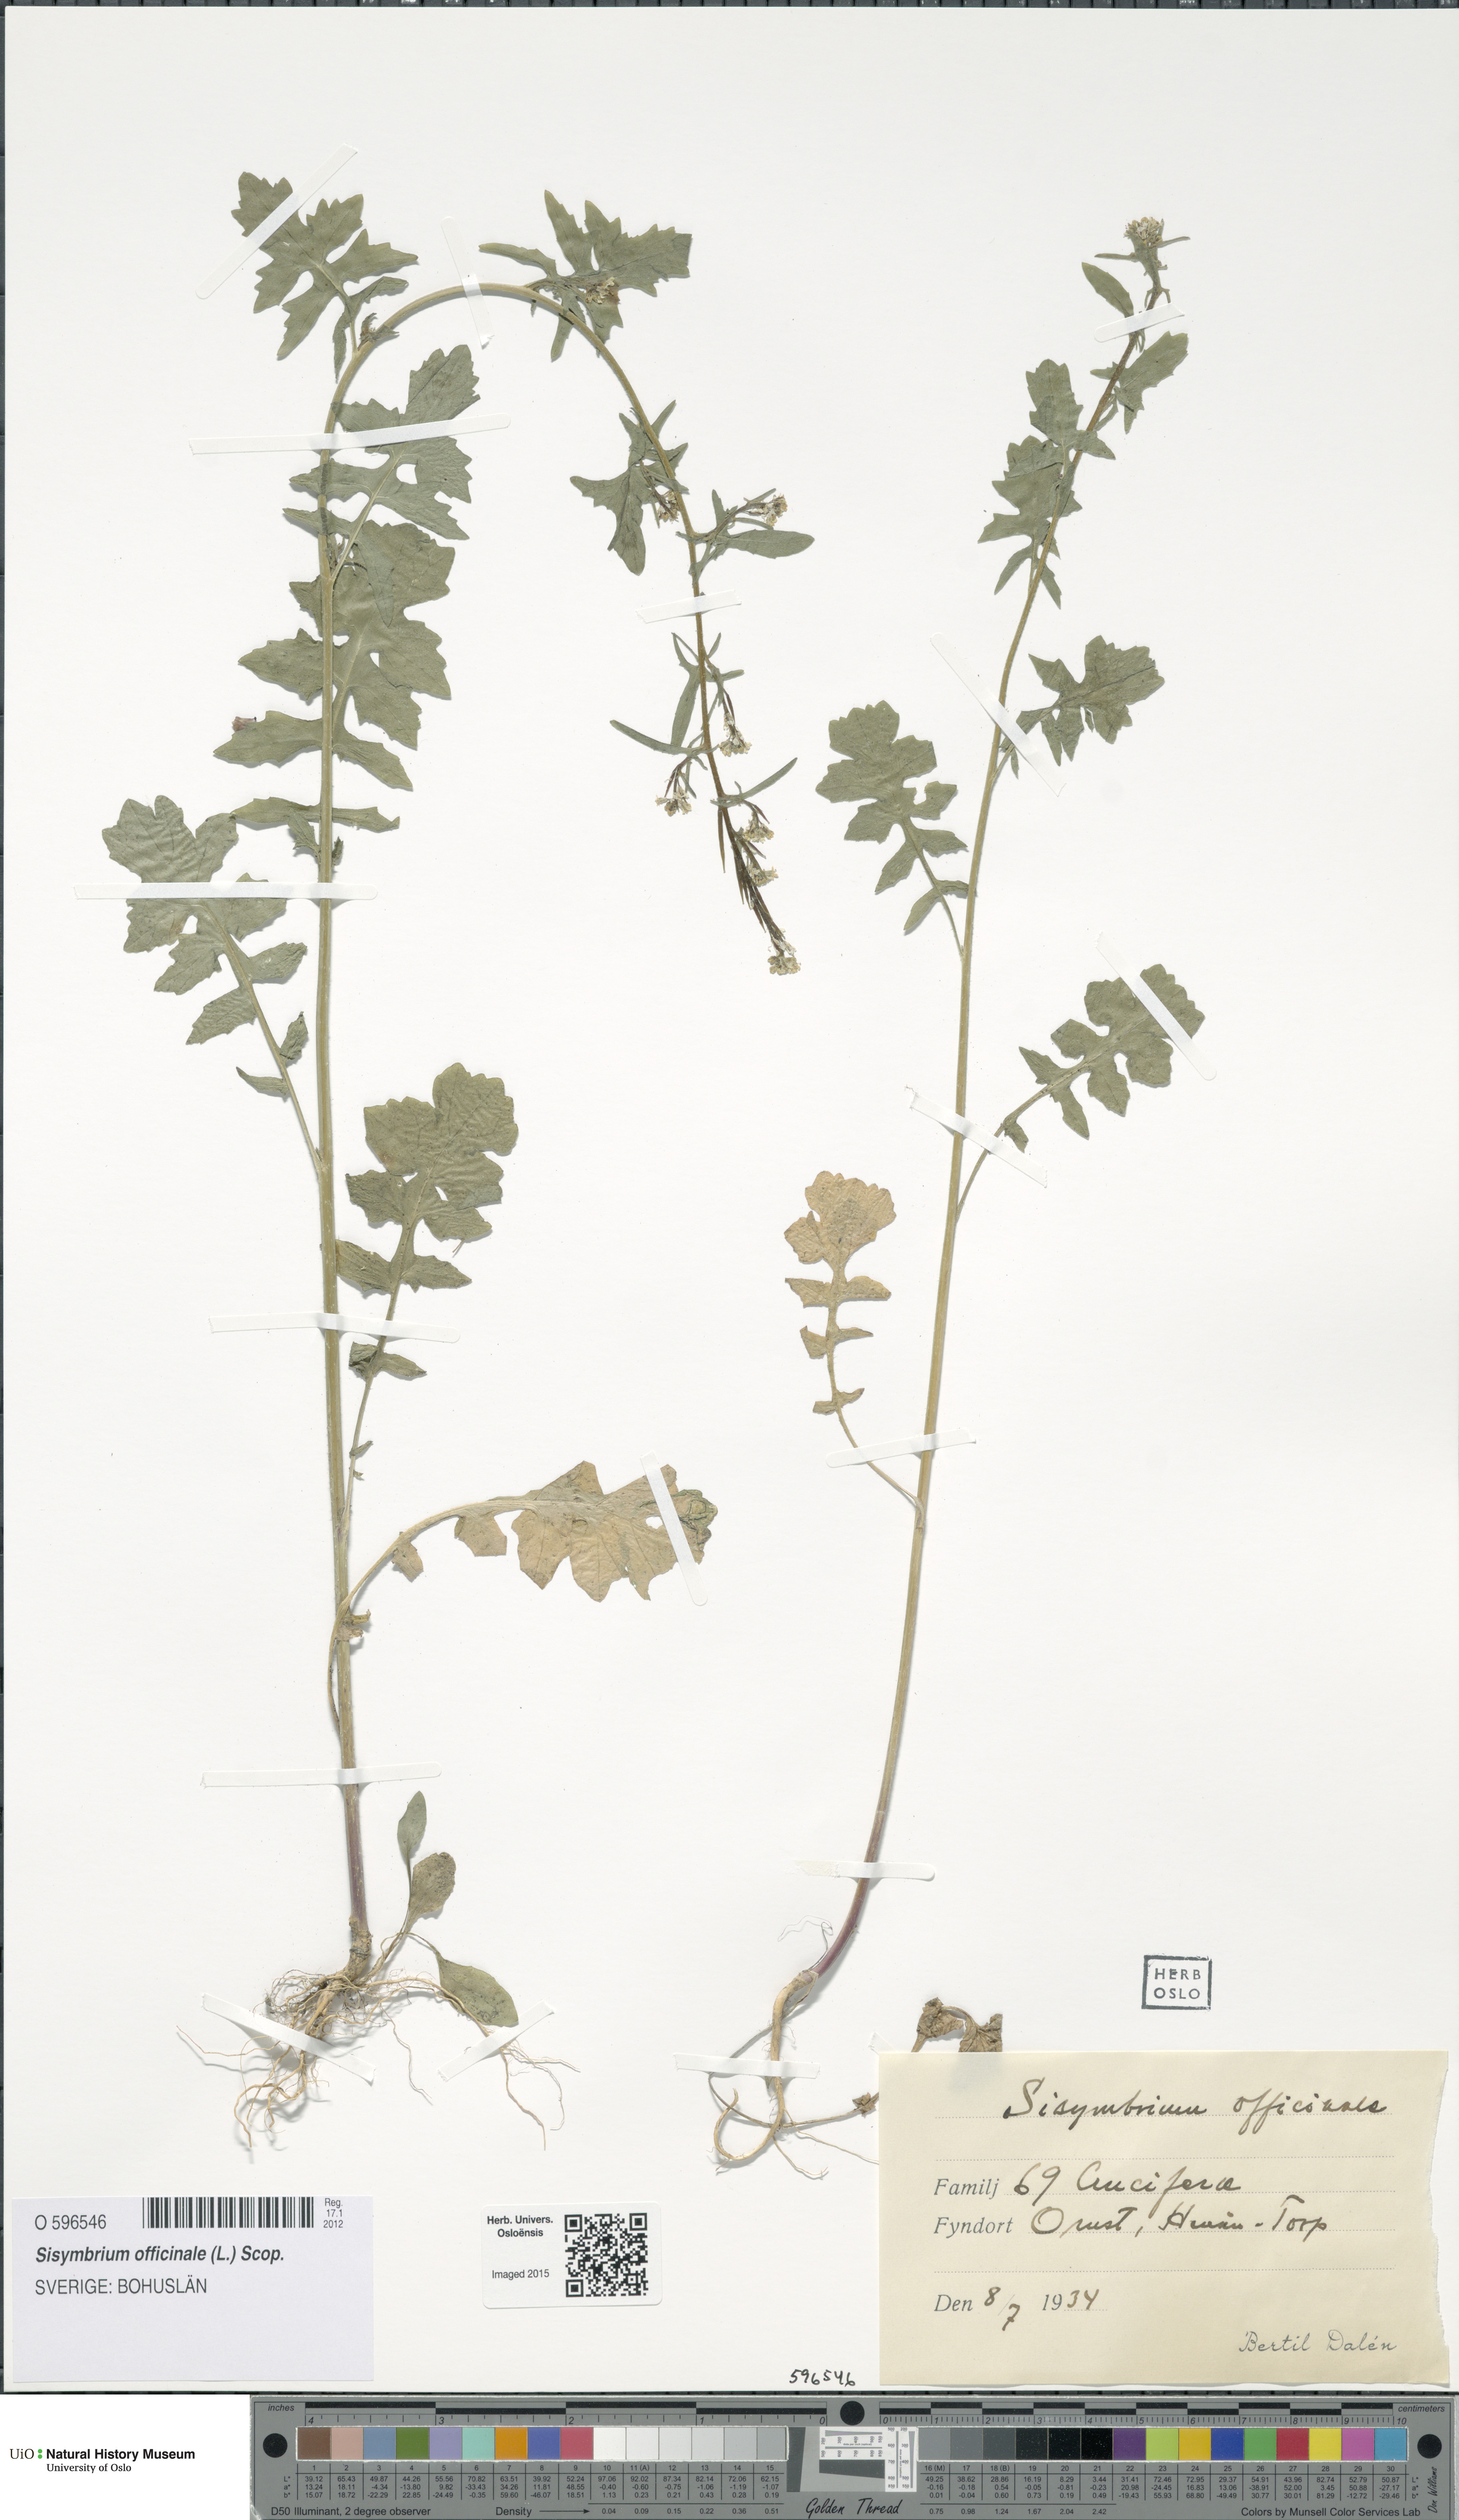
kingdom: Plantae
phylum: Tracheophyta
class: Magnoliopsida
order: Brassicales
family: Brassicaceae
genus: Sisymbrium
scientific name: Sisymbrium officinale
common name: Hedge mustard
